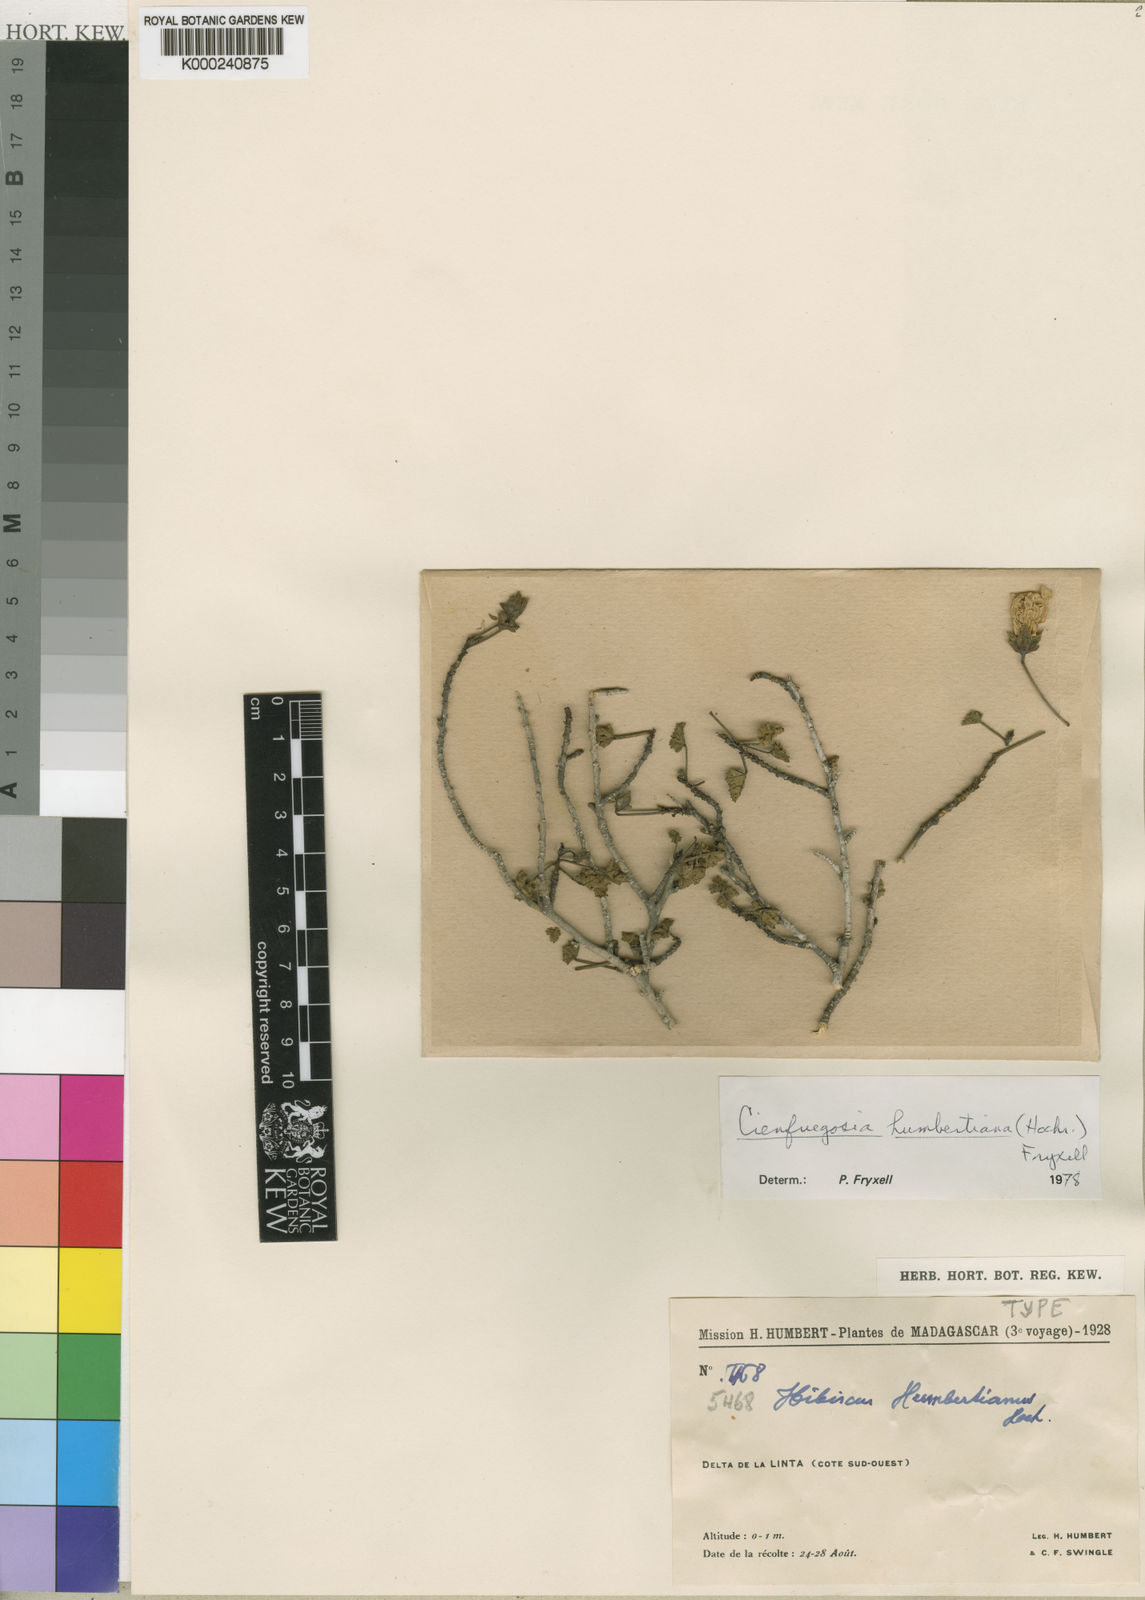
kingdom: Plantae
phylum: Tracheophyta
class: Magnoliopsida
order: Malvales
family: Malvaceae
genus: Cienfuegosia
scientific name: Cienfuegosia humbertiana
